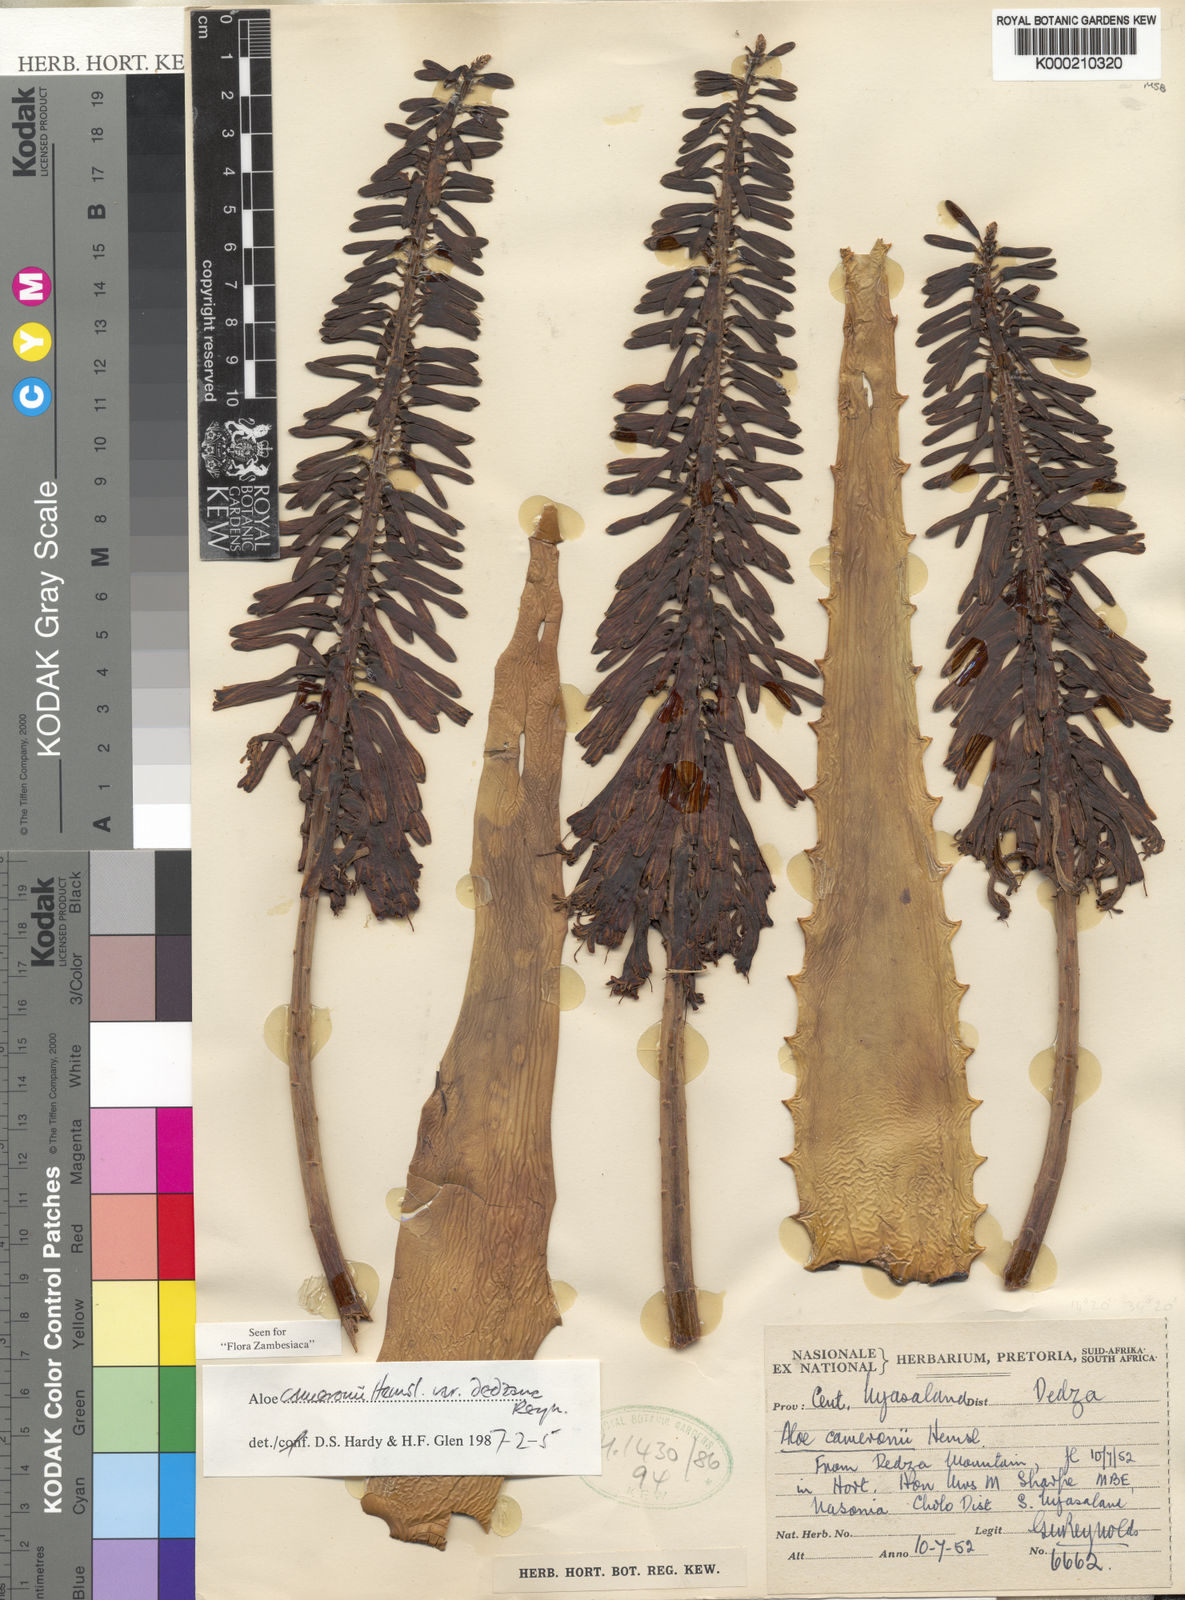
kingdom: Plantae
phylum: Tracheophyta
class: Liliopsida
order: Asparagales
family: Asphodelaceae
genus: Aloe
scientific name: Aloe cameronii
